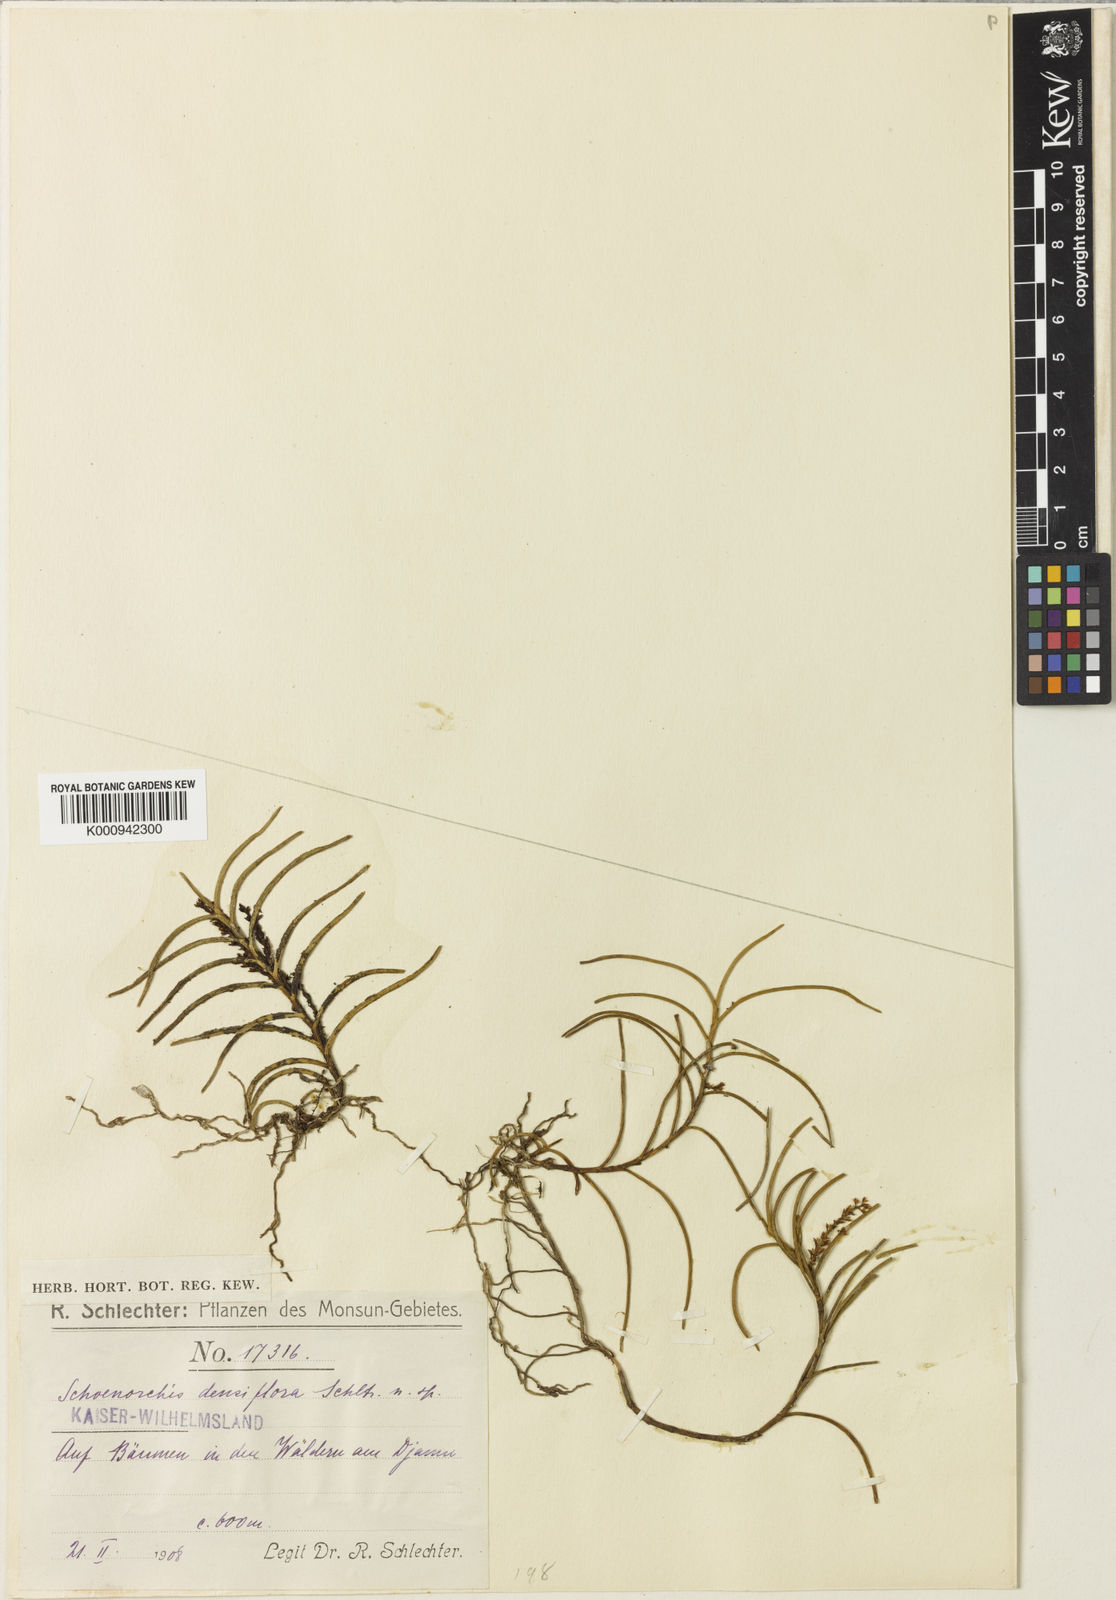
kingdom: Plantae
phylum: Tracheophyta
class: Liliopsida
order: Asparagales
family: Orchidaceae
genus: Schoenorchis
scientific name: Schoenorchis micrantha
